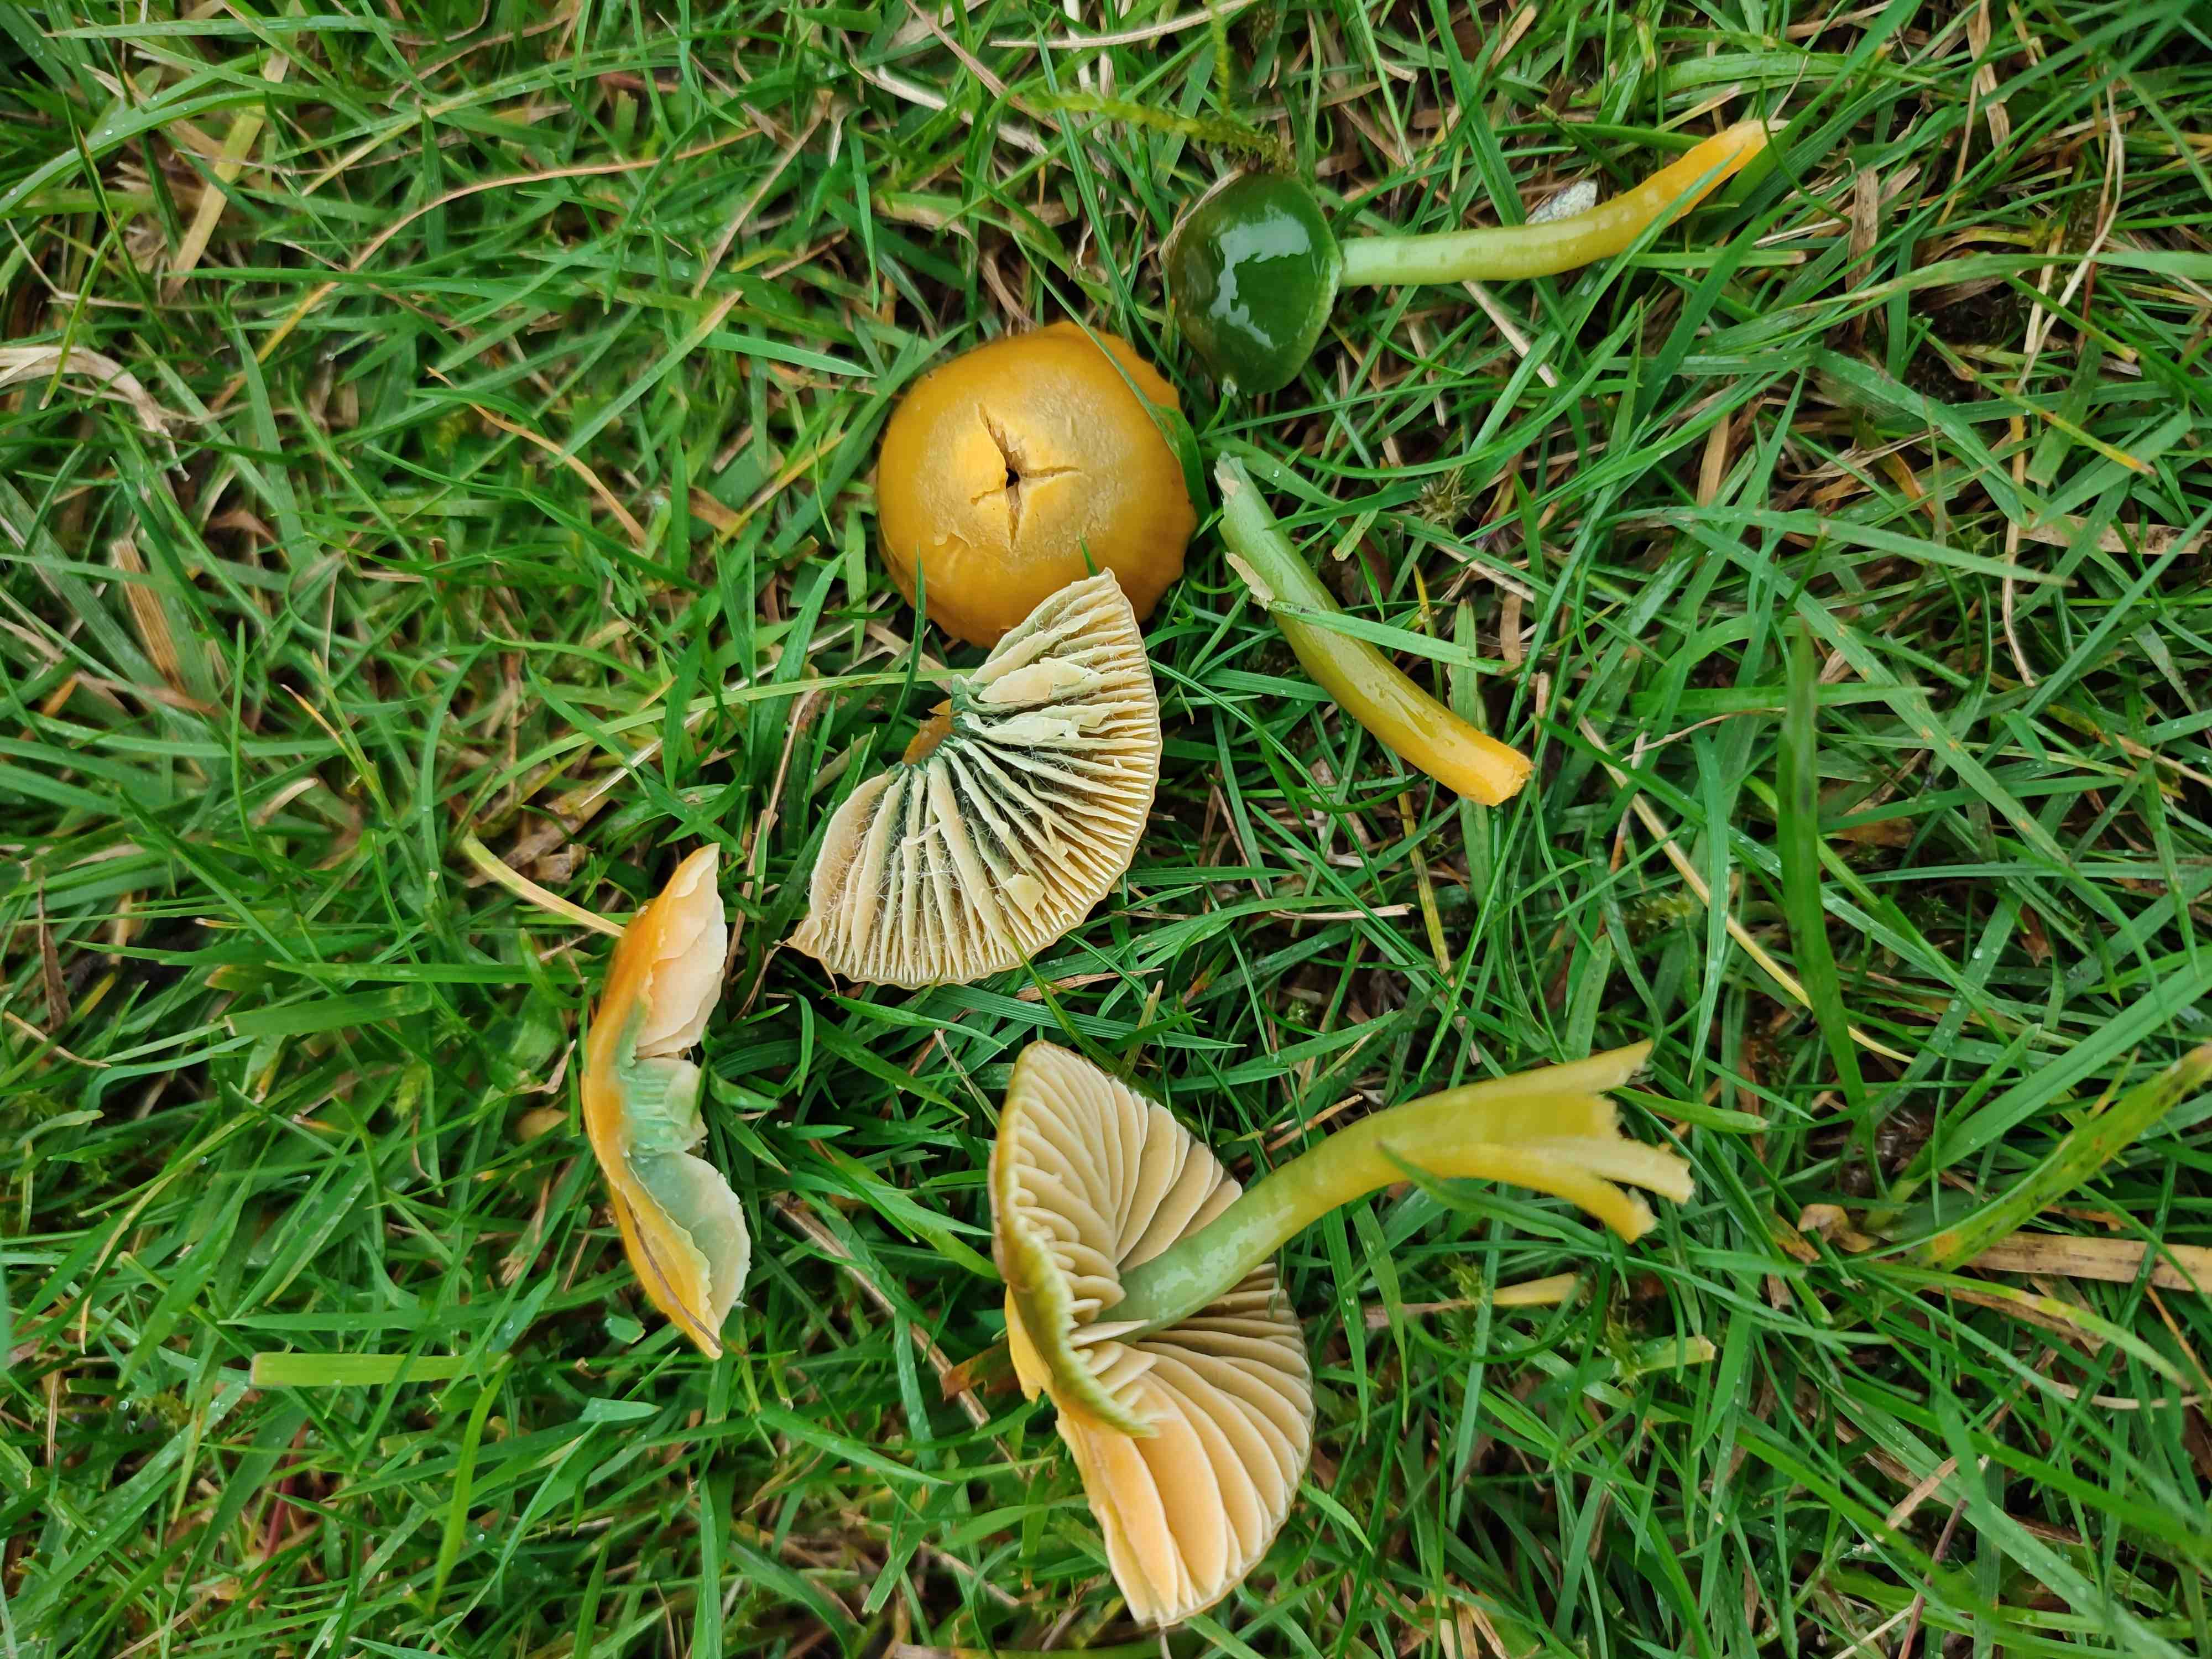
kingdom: Fungi
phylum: Basidiomycota
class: Agaricomycetes
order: Agaricales
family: Hygrophoraceae
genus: Gliophorus
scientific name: Gliophorus psittacinus
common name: papegøje-vokshat
